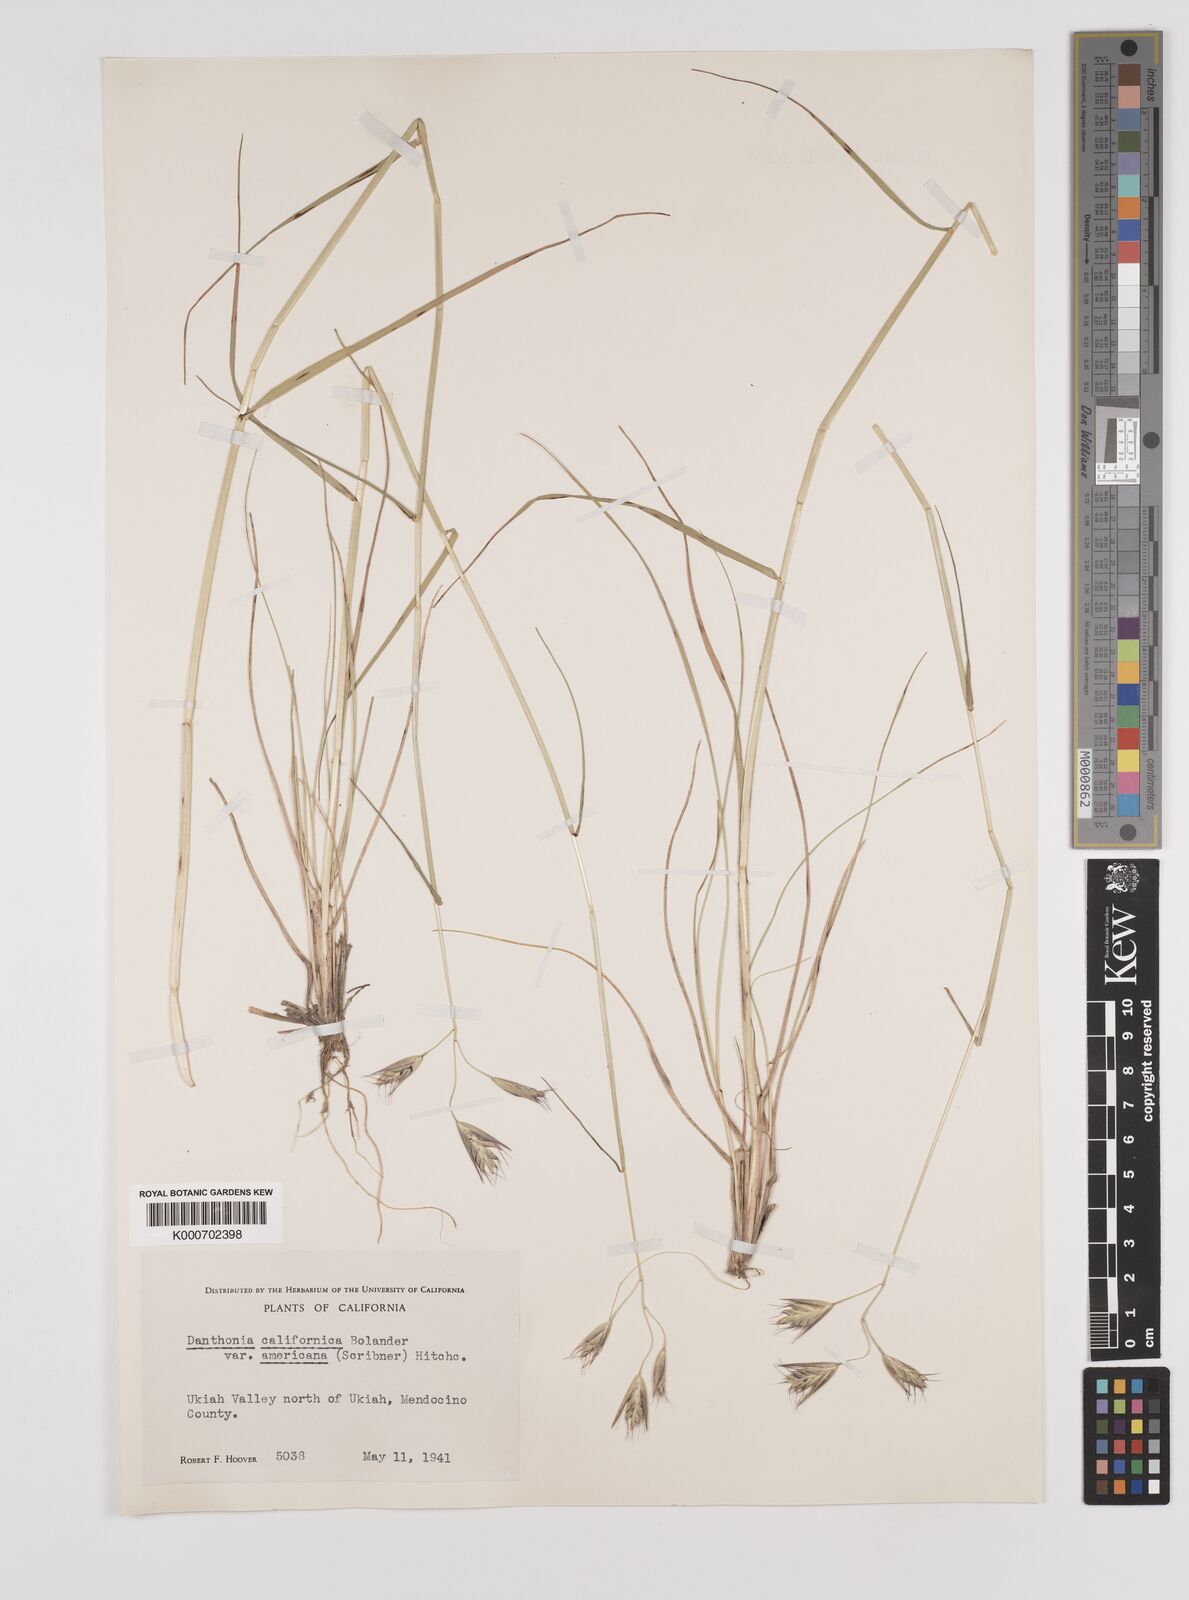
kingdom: Plantae
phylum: Tracheophyta
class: Liliopsida
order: Poales
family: Poaceae
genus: Danthonia
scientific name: Danthonia californica
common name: California oat grass
